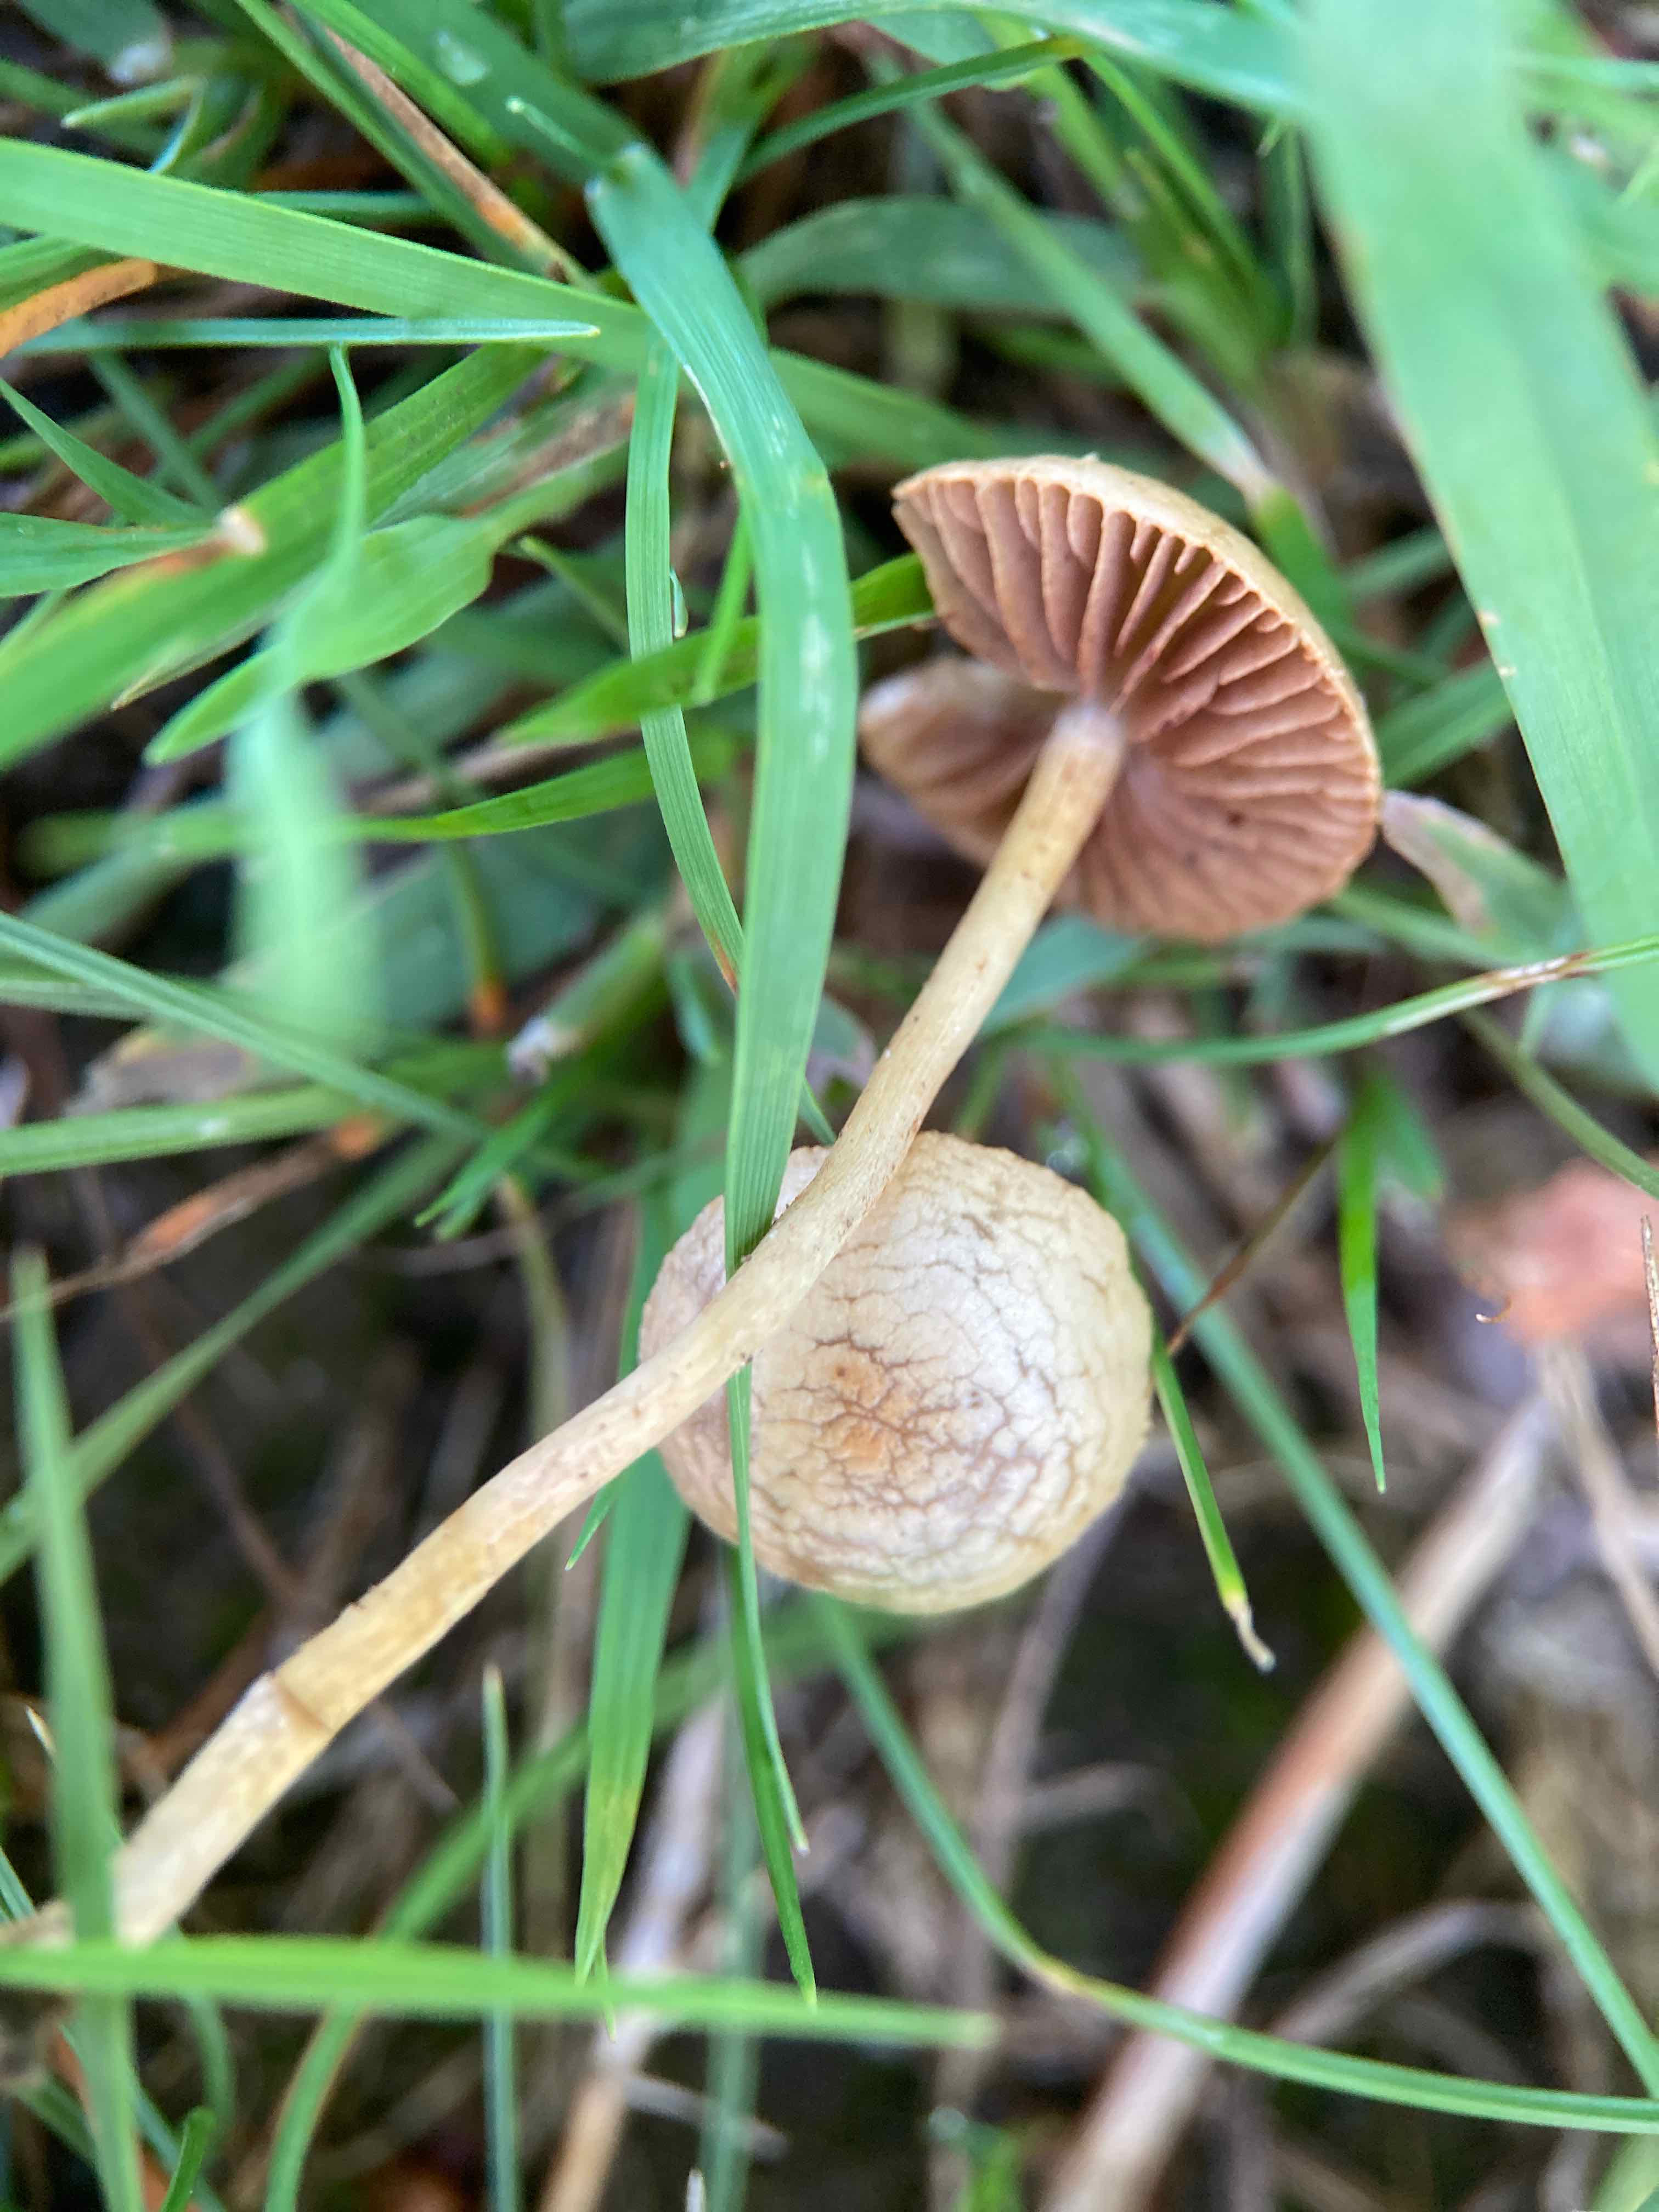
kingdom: Fungi
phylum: Basidiomycota
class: Agaricomycetes
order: Agaricales
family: Strophariaceae
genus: Agrocybe
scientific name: Agrocybe pediades
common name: almindelig agerhat
